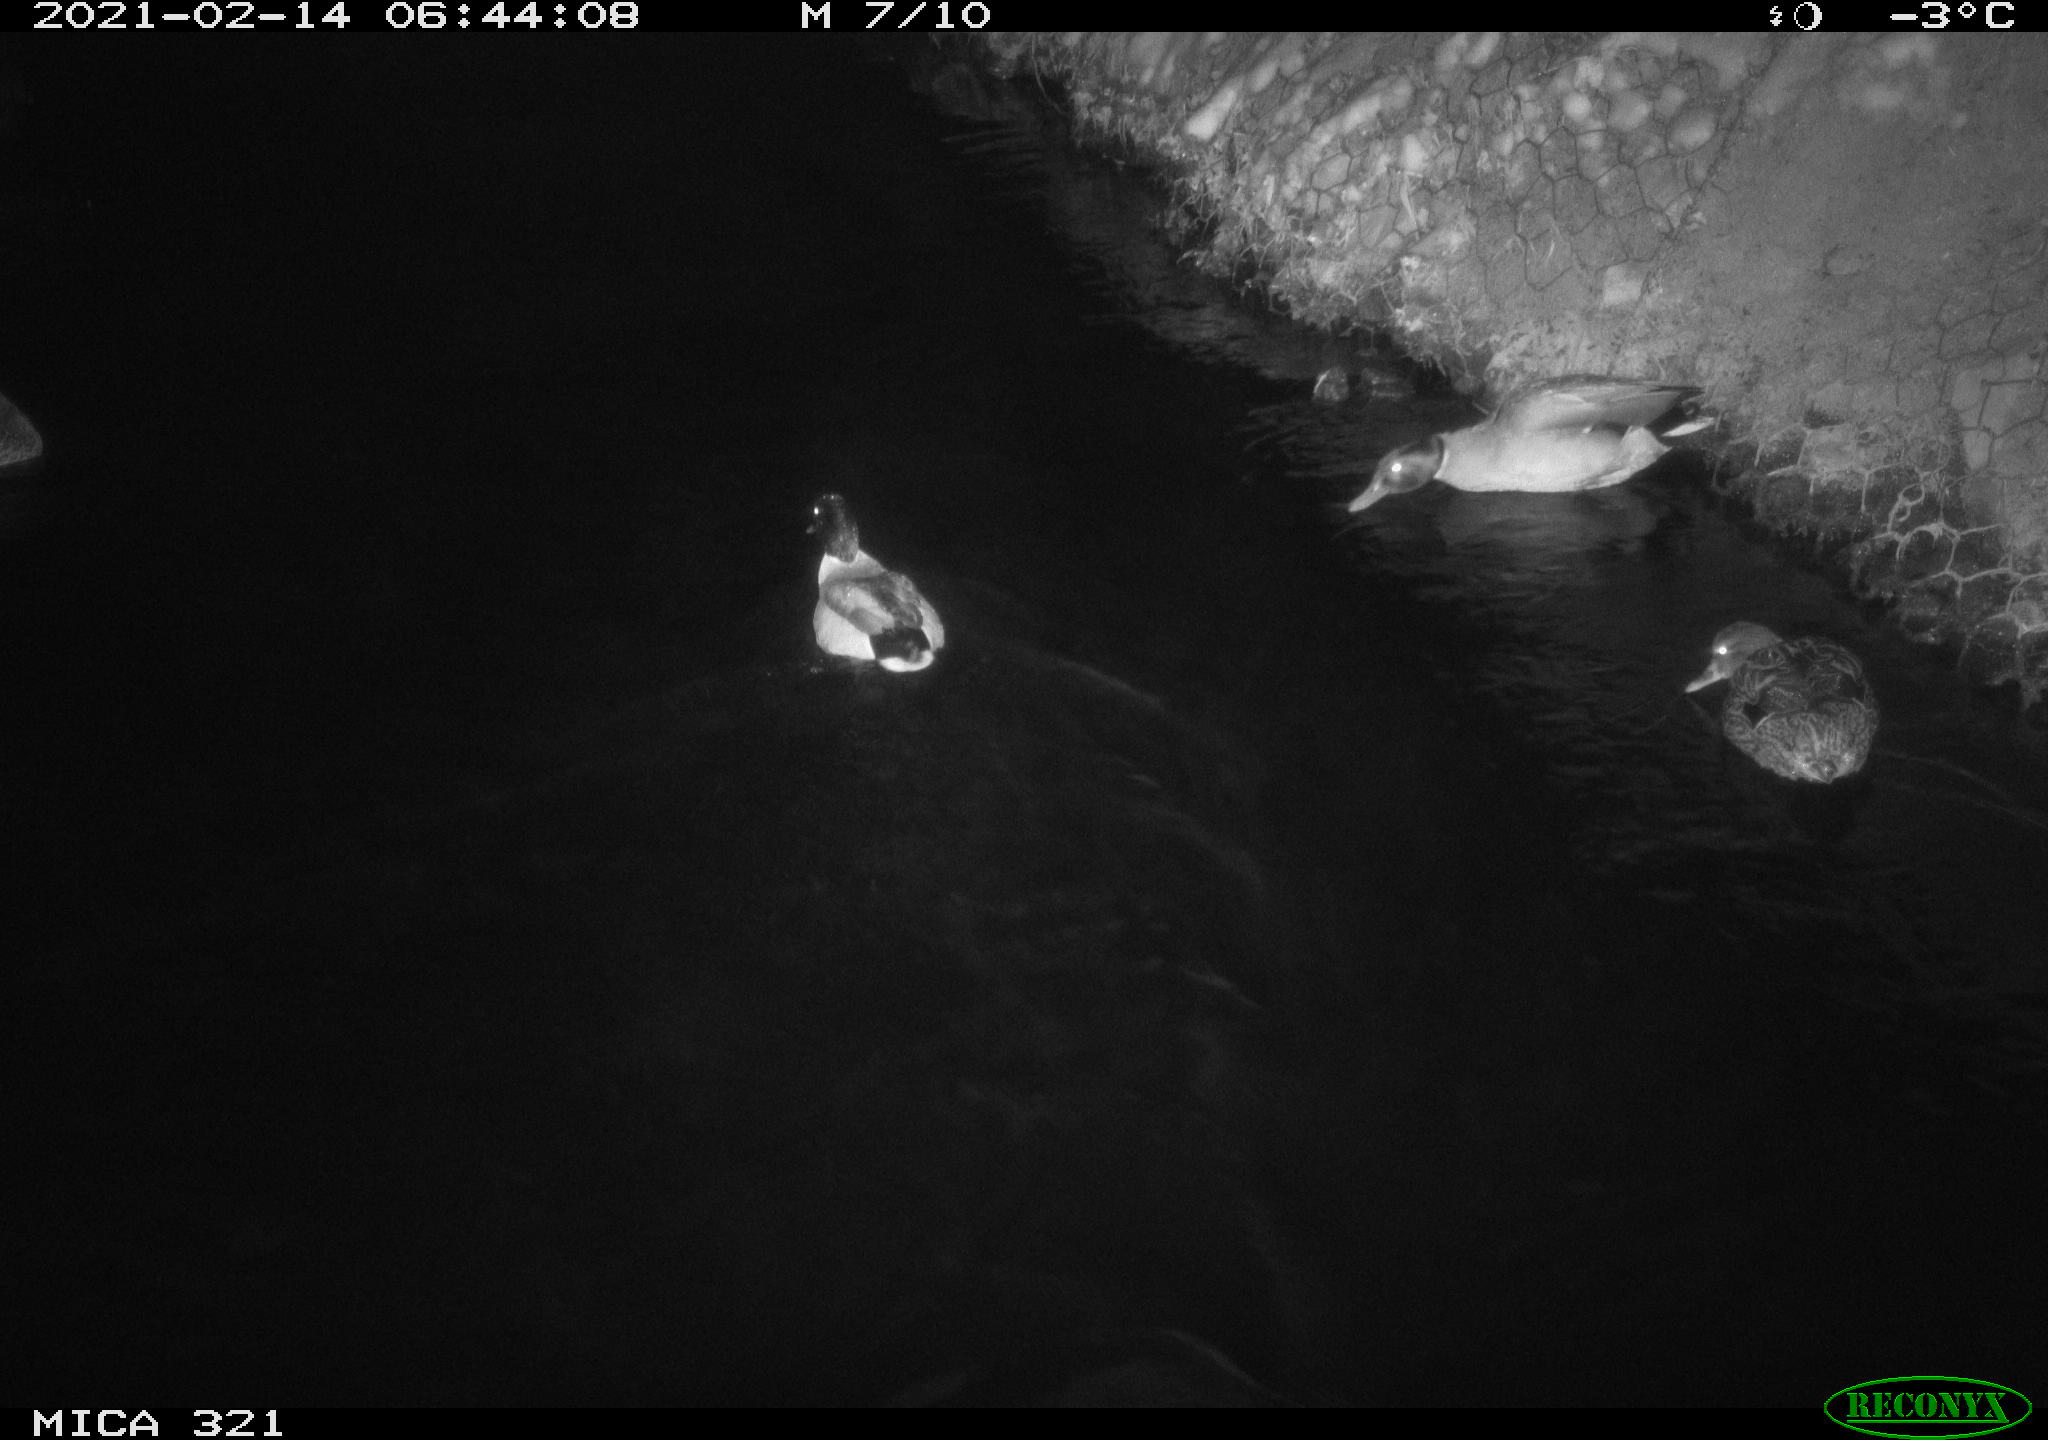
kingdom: Animalia
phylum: Chordata
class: Aves
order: Anseriformes
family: Anatidae
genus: Anas
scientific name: Anas platyrhynchos
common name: Mallard
